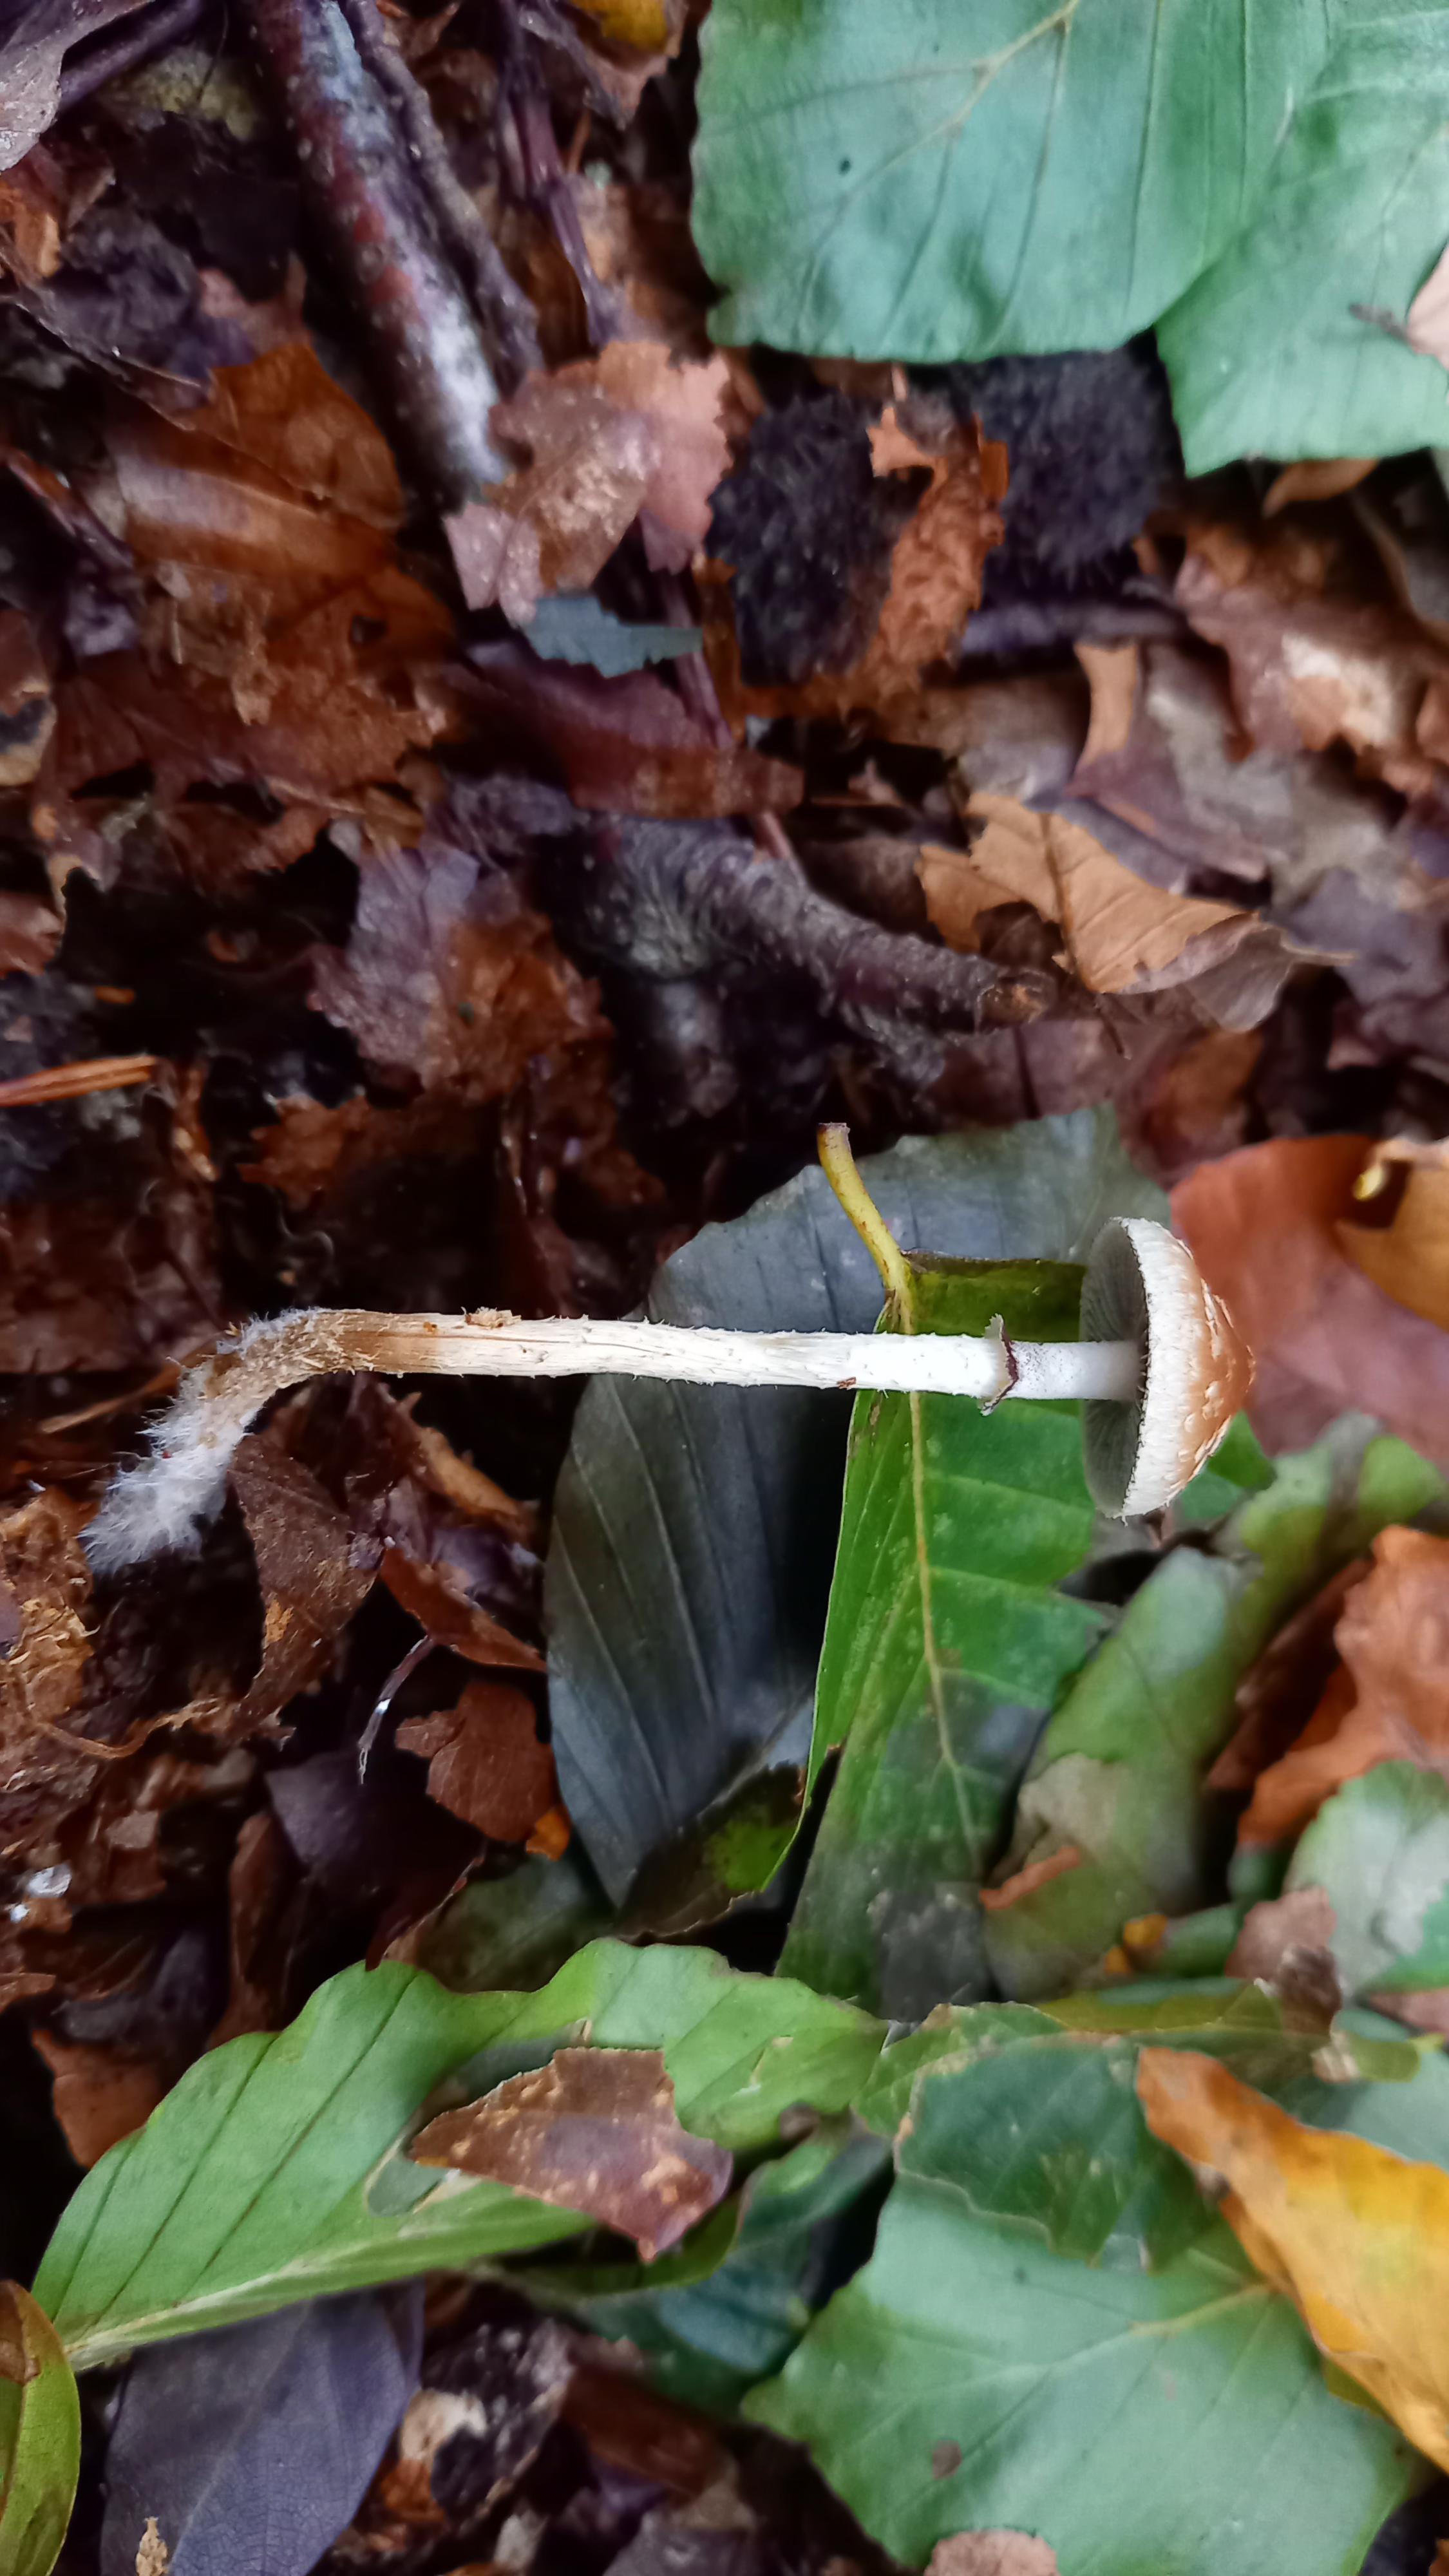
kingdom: Fungi
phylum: Basidiomycota
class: Agaricomycetes
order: Agaricales
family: Strophariaceae
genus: Leratiomyces
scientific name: Leratiomyces squamosus
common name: skællet bredblad
